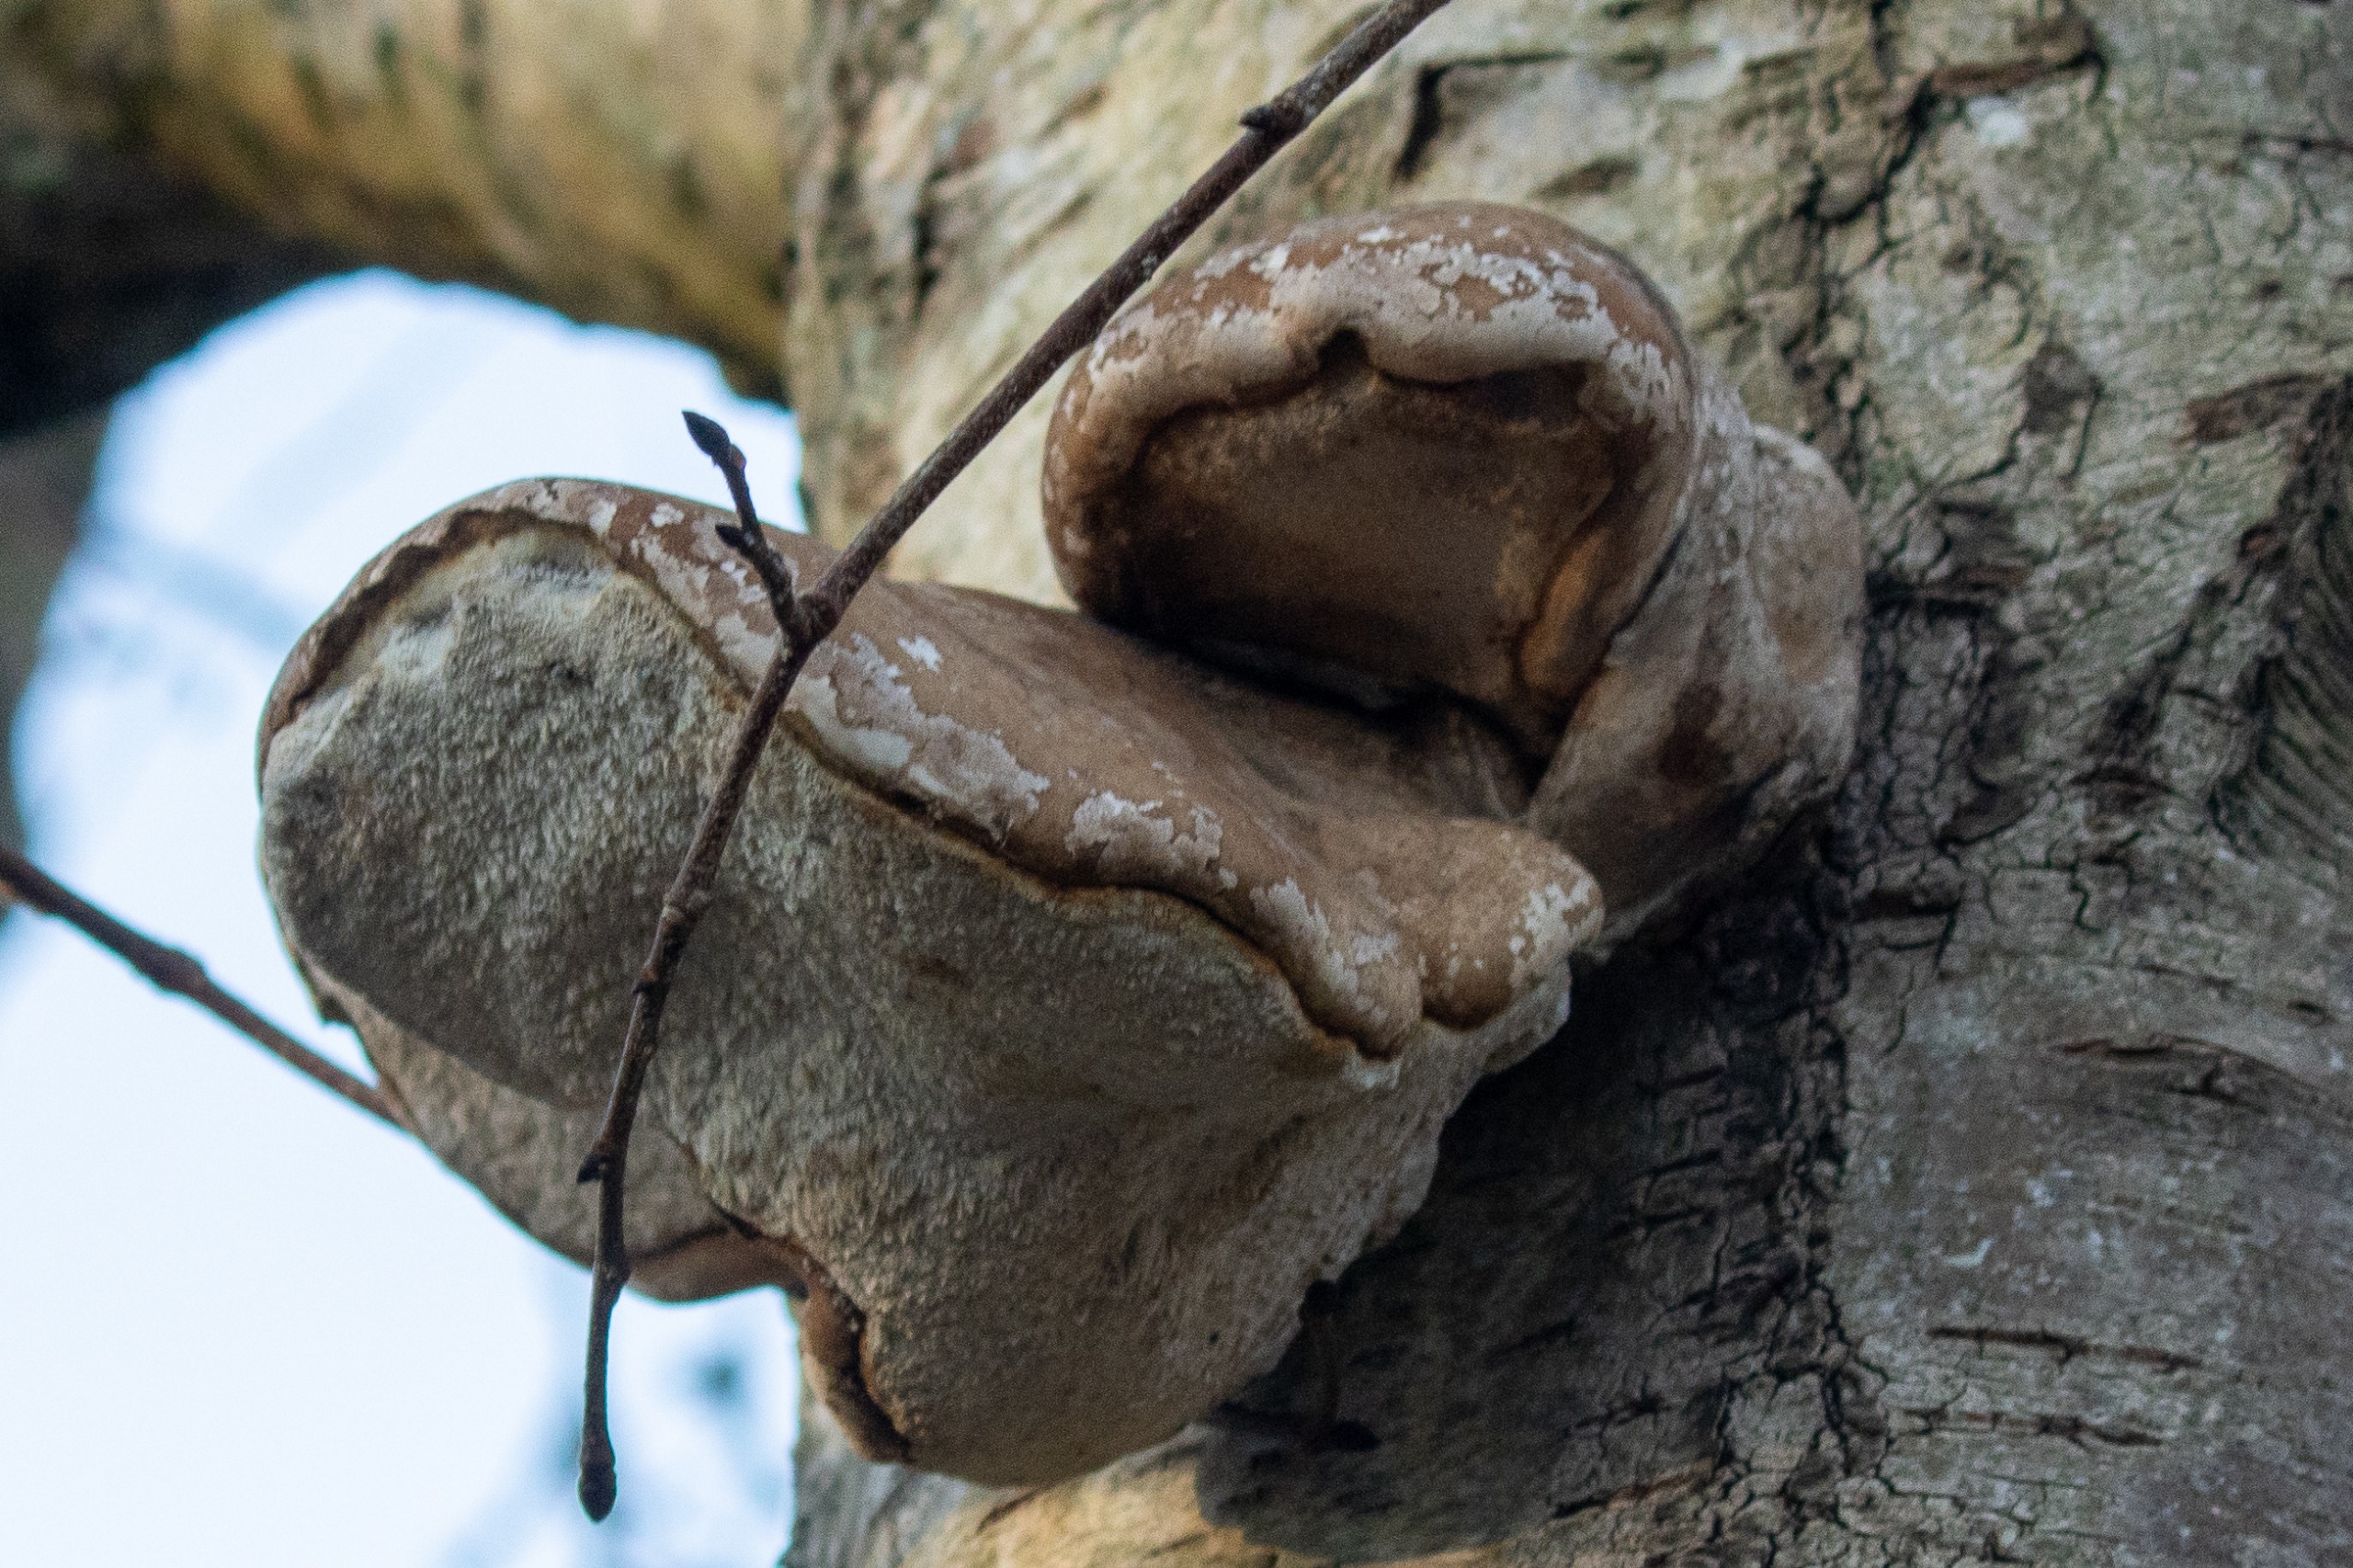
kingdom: Fungi
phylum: Basidiomycota
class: Agaricomycetes
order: Polyporales
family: Fomitopsidaceae
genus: Fomitopsis
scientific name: Fomitopsis betulina
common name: Birkeporesvamp
